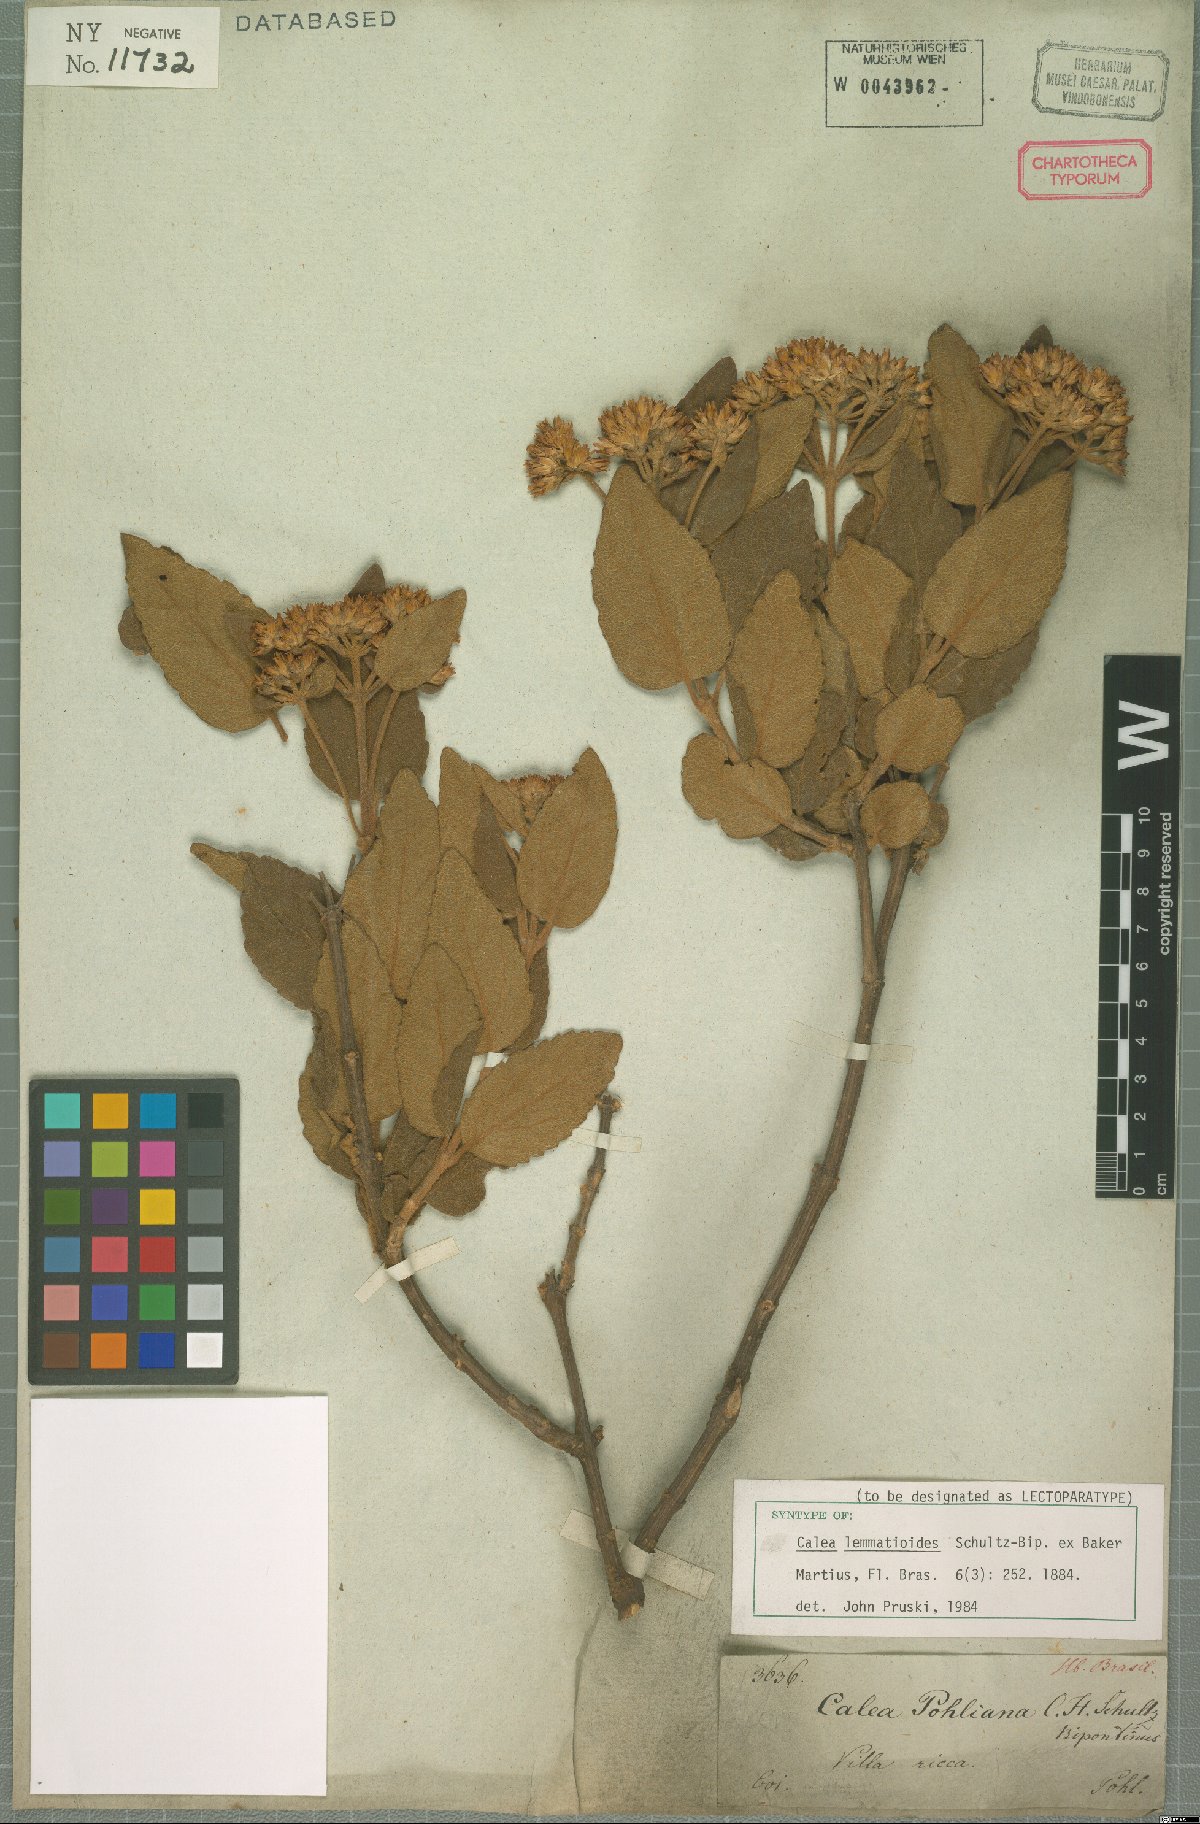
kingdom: Plantae
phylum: Tracheophyta
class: Magnoliopsida
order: Asterales
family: Asteraceae
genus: Calea
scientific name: Calea lemmatioides
